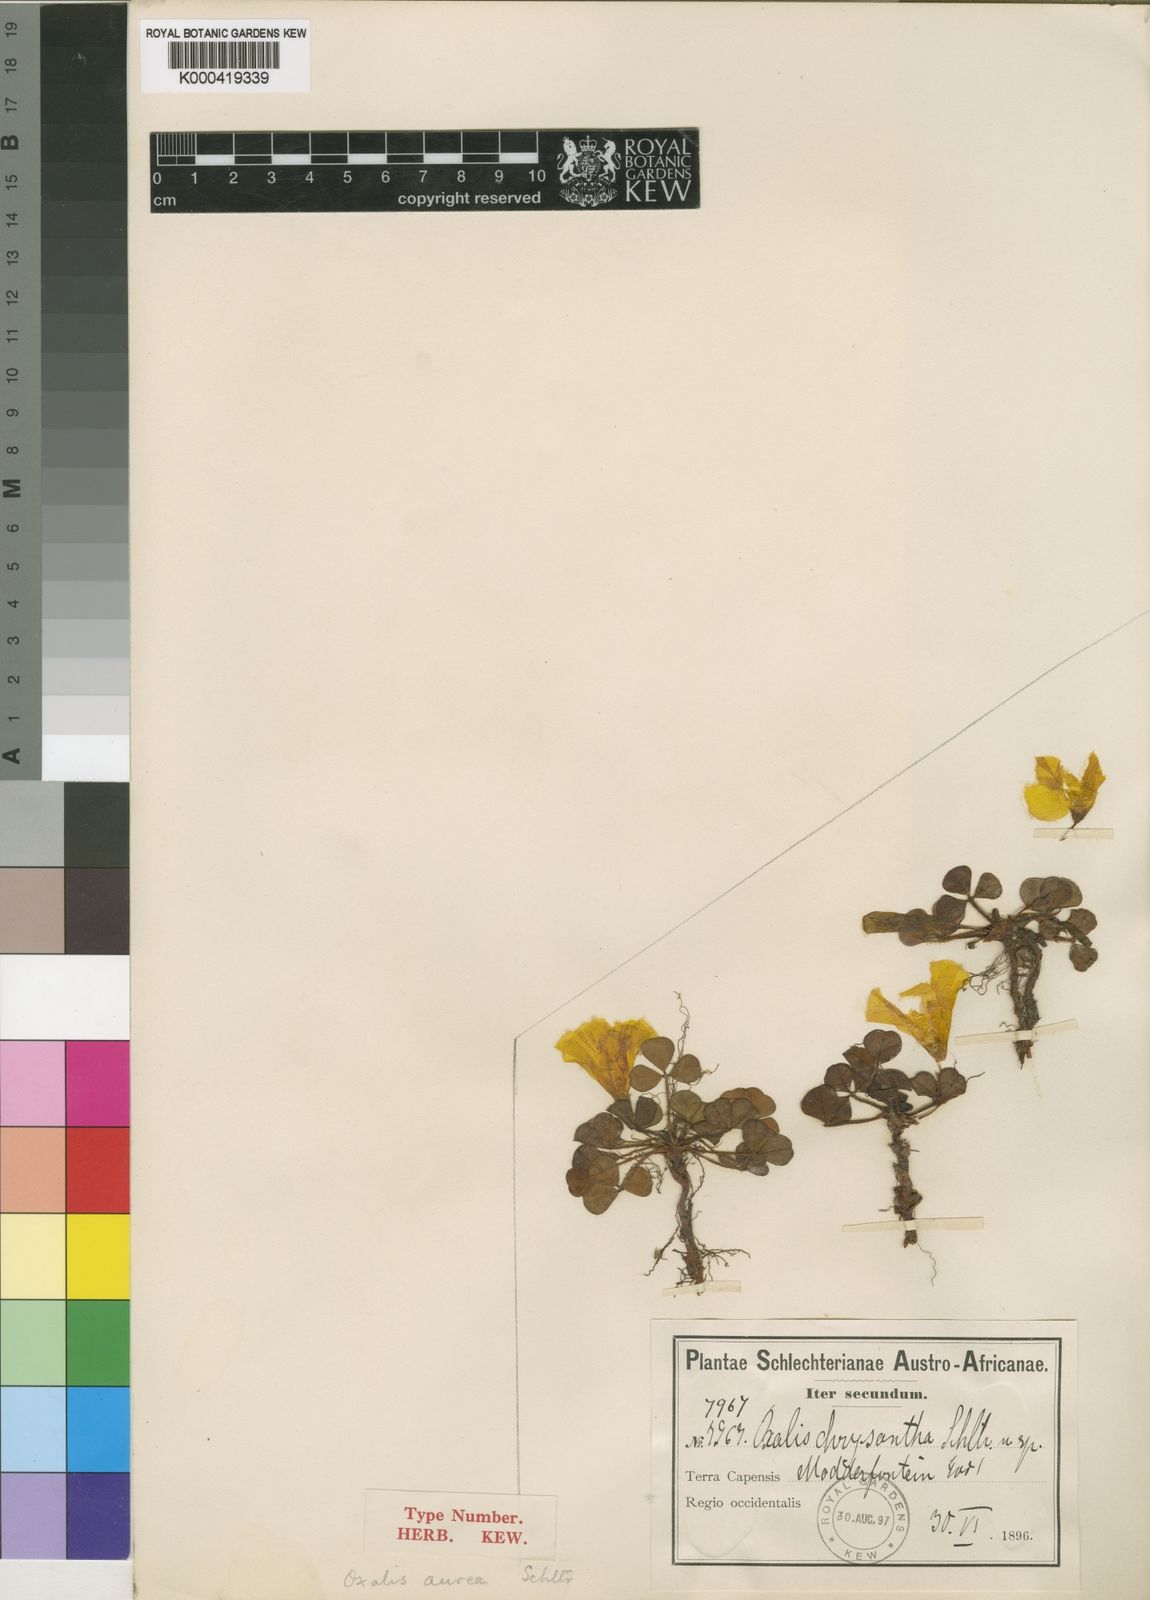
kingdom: Plantae
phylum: Tracheophyta
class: Magnoliopsida
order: Oxalidales
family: Oxalidaceae
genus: Oxalis
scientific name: Oxalis aurea
